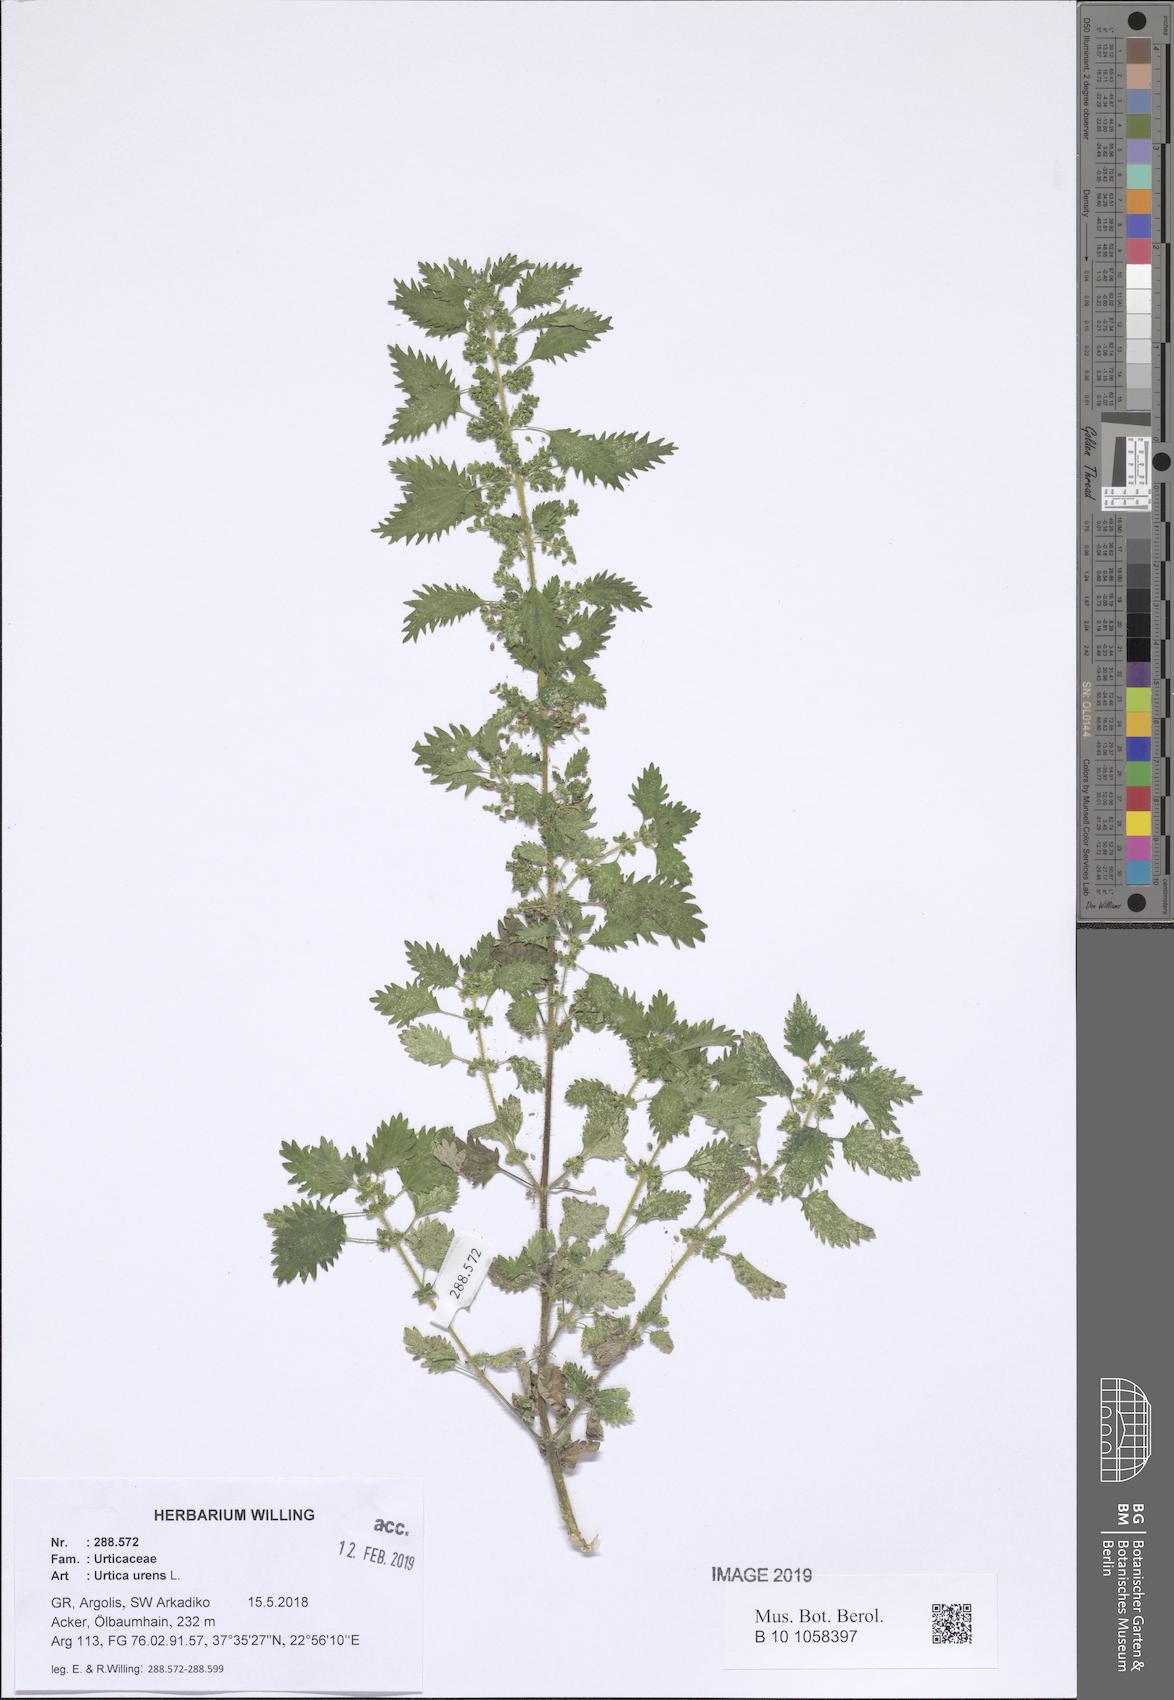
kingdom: Plantae
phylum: Tracheophyta
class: Magnoliopsida
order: Rosales
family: Urticaceae
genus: Urtica
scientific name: Urtica urens
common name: Dwarf nettle
